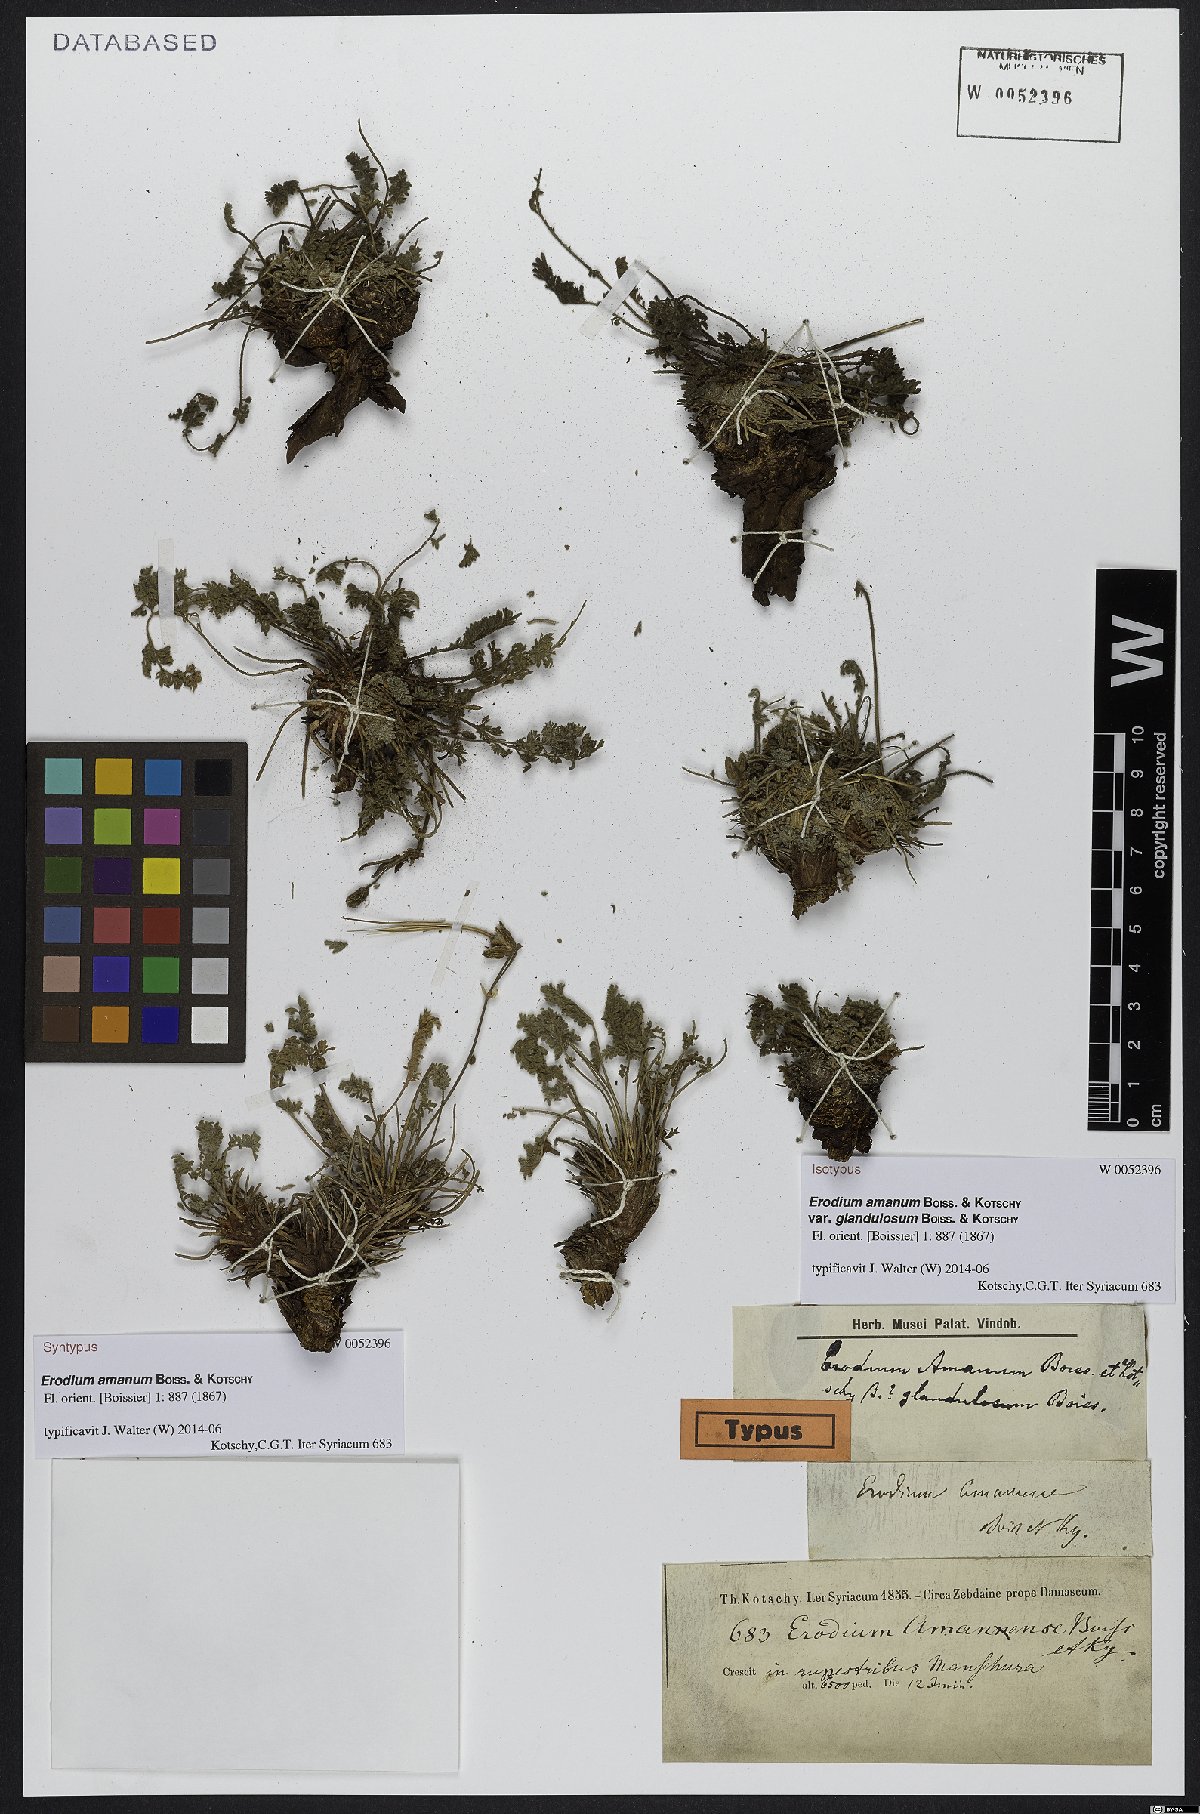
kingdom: Plantae
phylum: Tracheophyta
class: Magnoliopsida
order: Geraniales
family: Geraniaceae
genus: Erodium
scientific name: Erodium trichomanifolium
